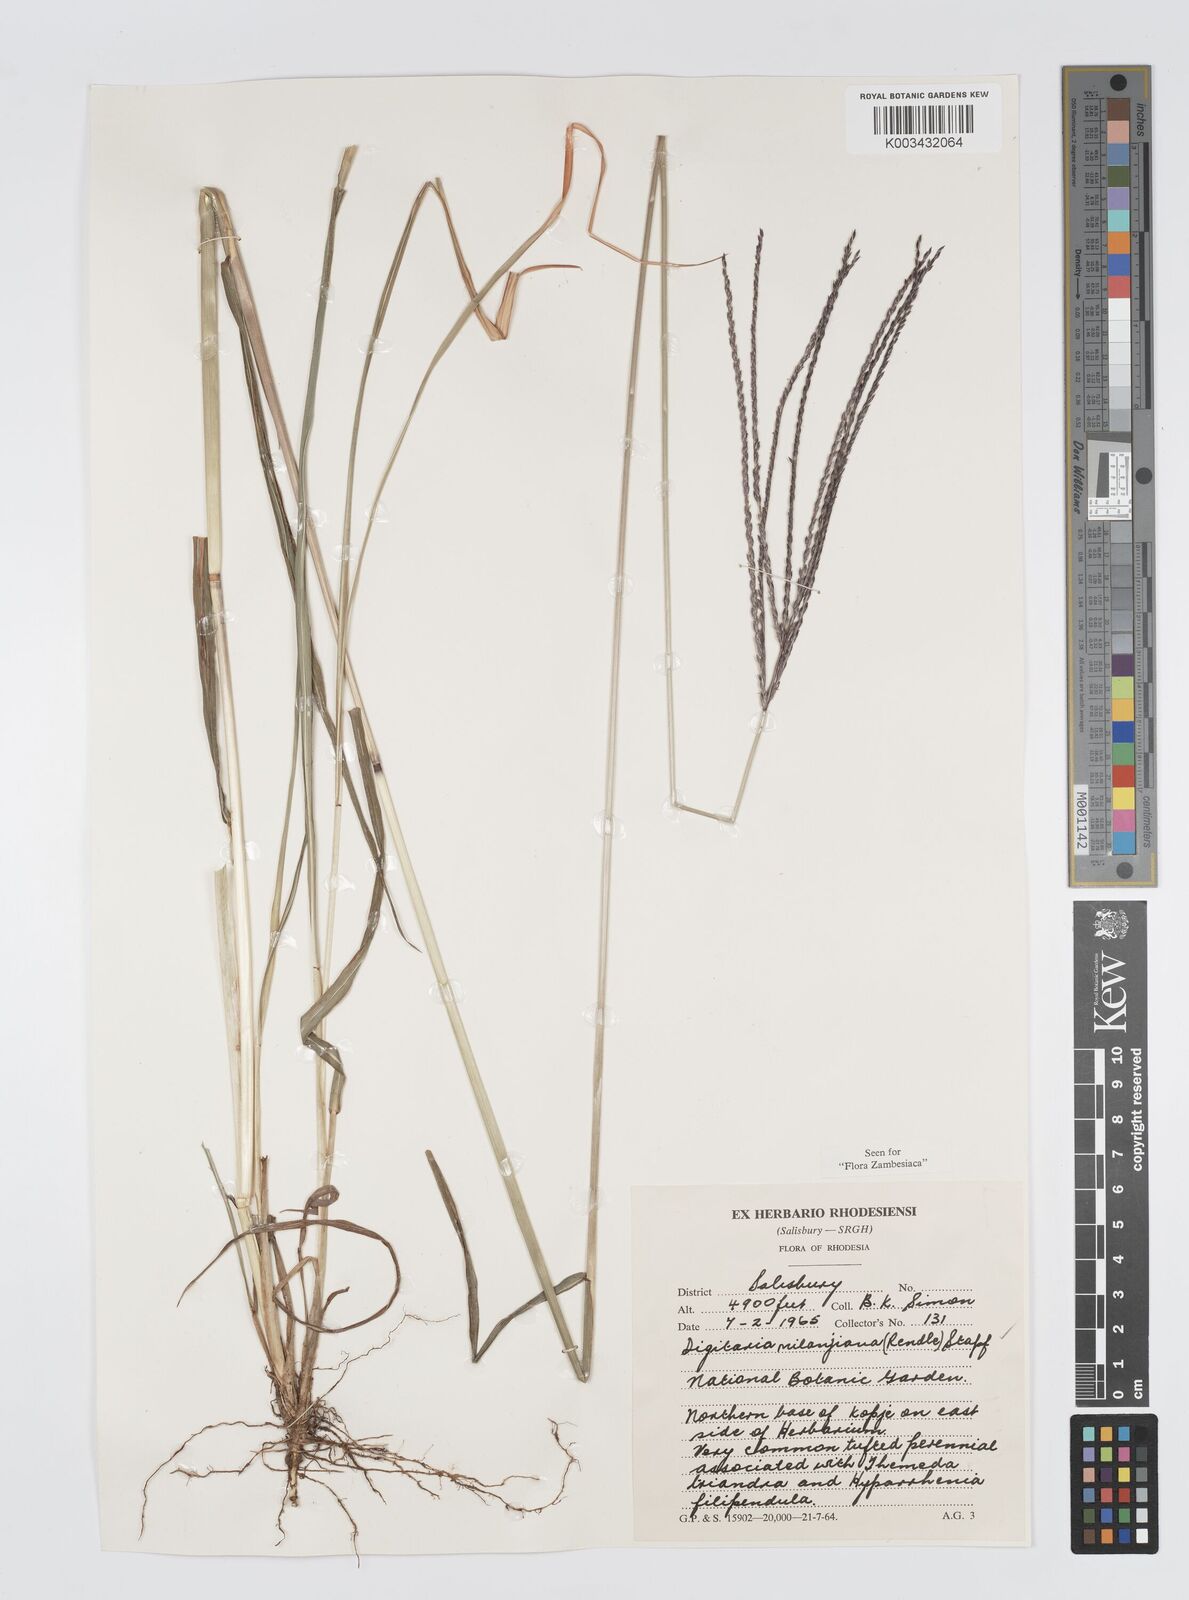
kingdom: Plantae
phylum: Tracheophyta
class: Liliopsida
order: Poales
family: Poaceae
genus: Digitaria
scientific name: Digitaria milanjiana
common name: Madagascar crabgrass
